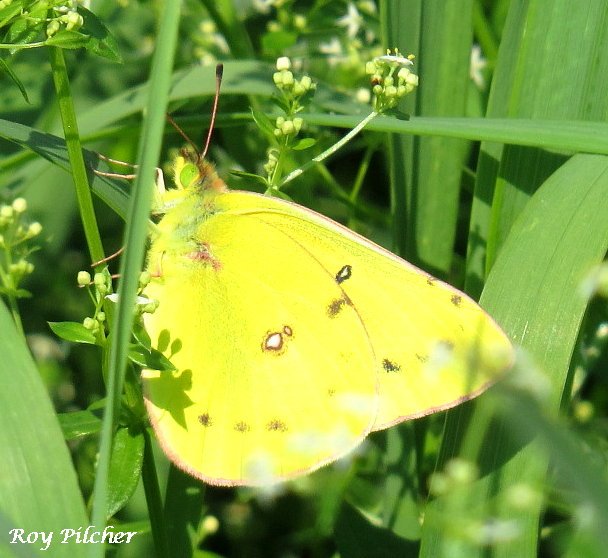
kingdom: Animalia
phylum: Arthropoda
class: Insecta
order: Lepidoptera
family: Pieridae
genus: Colias
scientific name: Colias eurytheme
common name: Orange Sulphur
